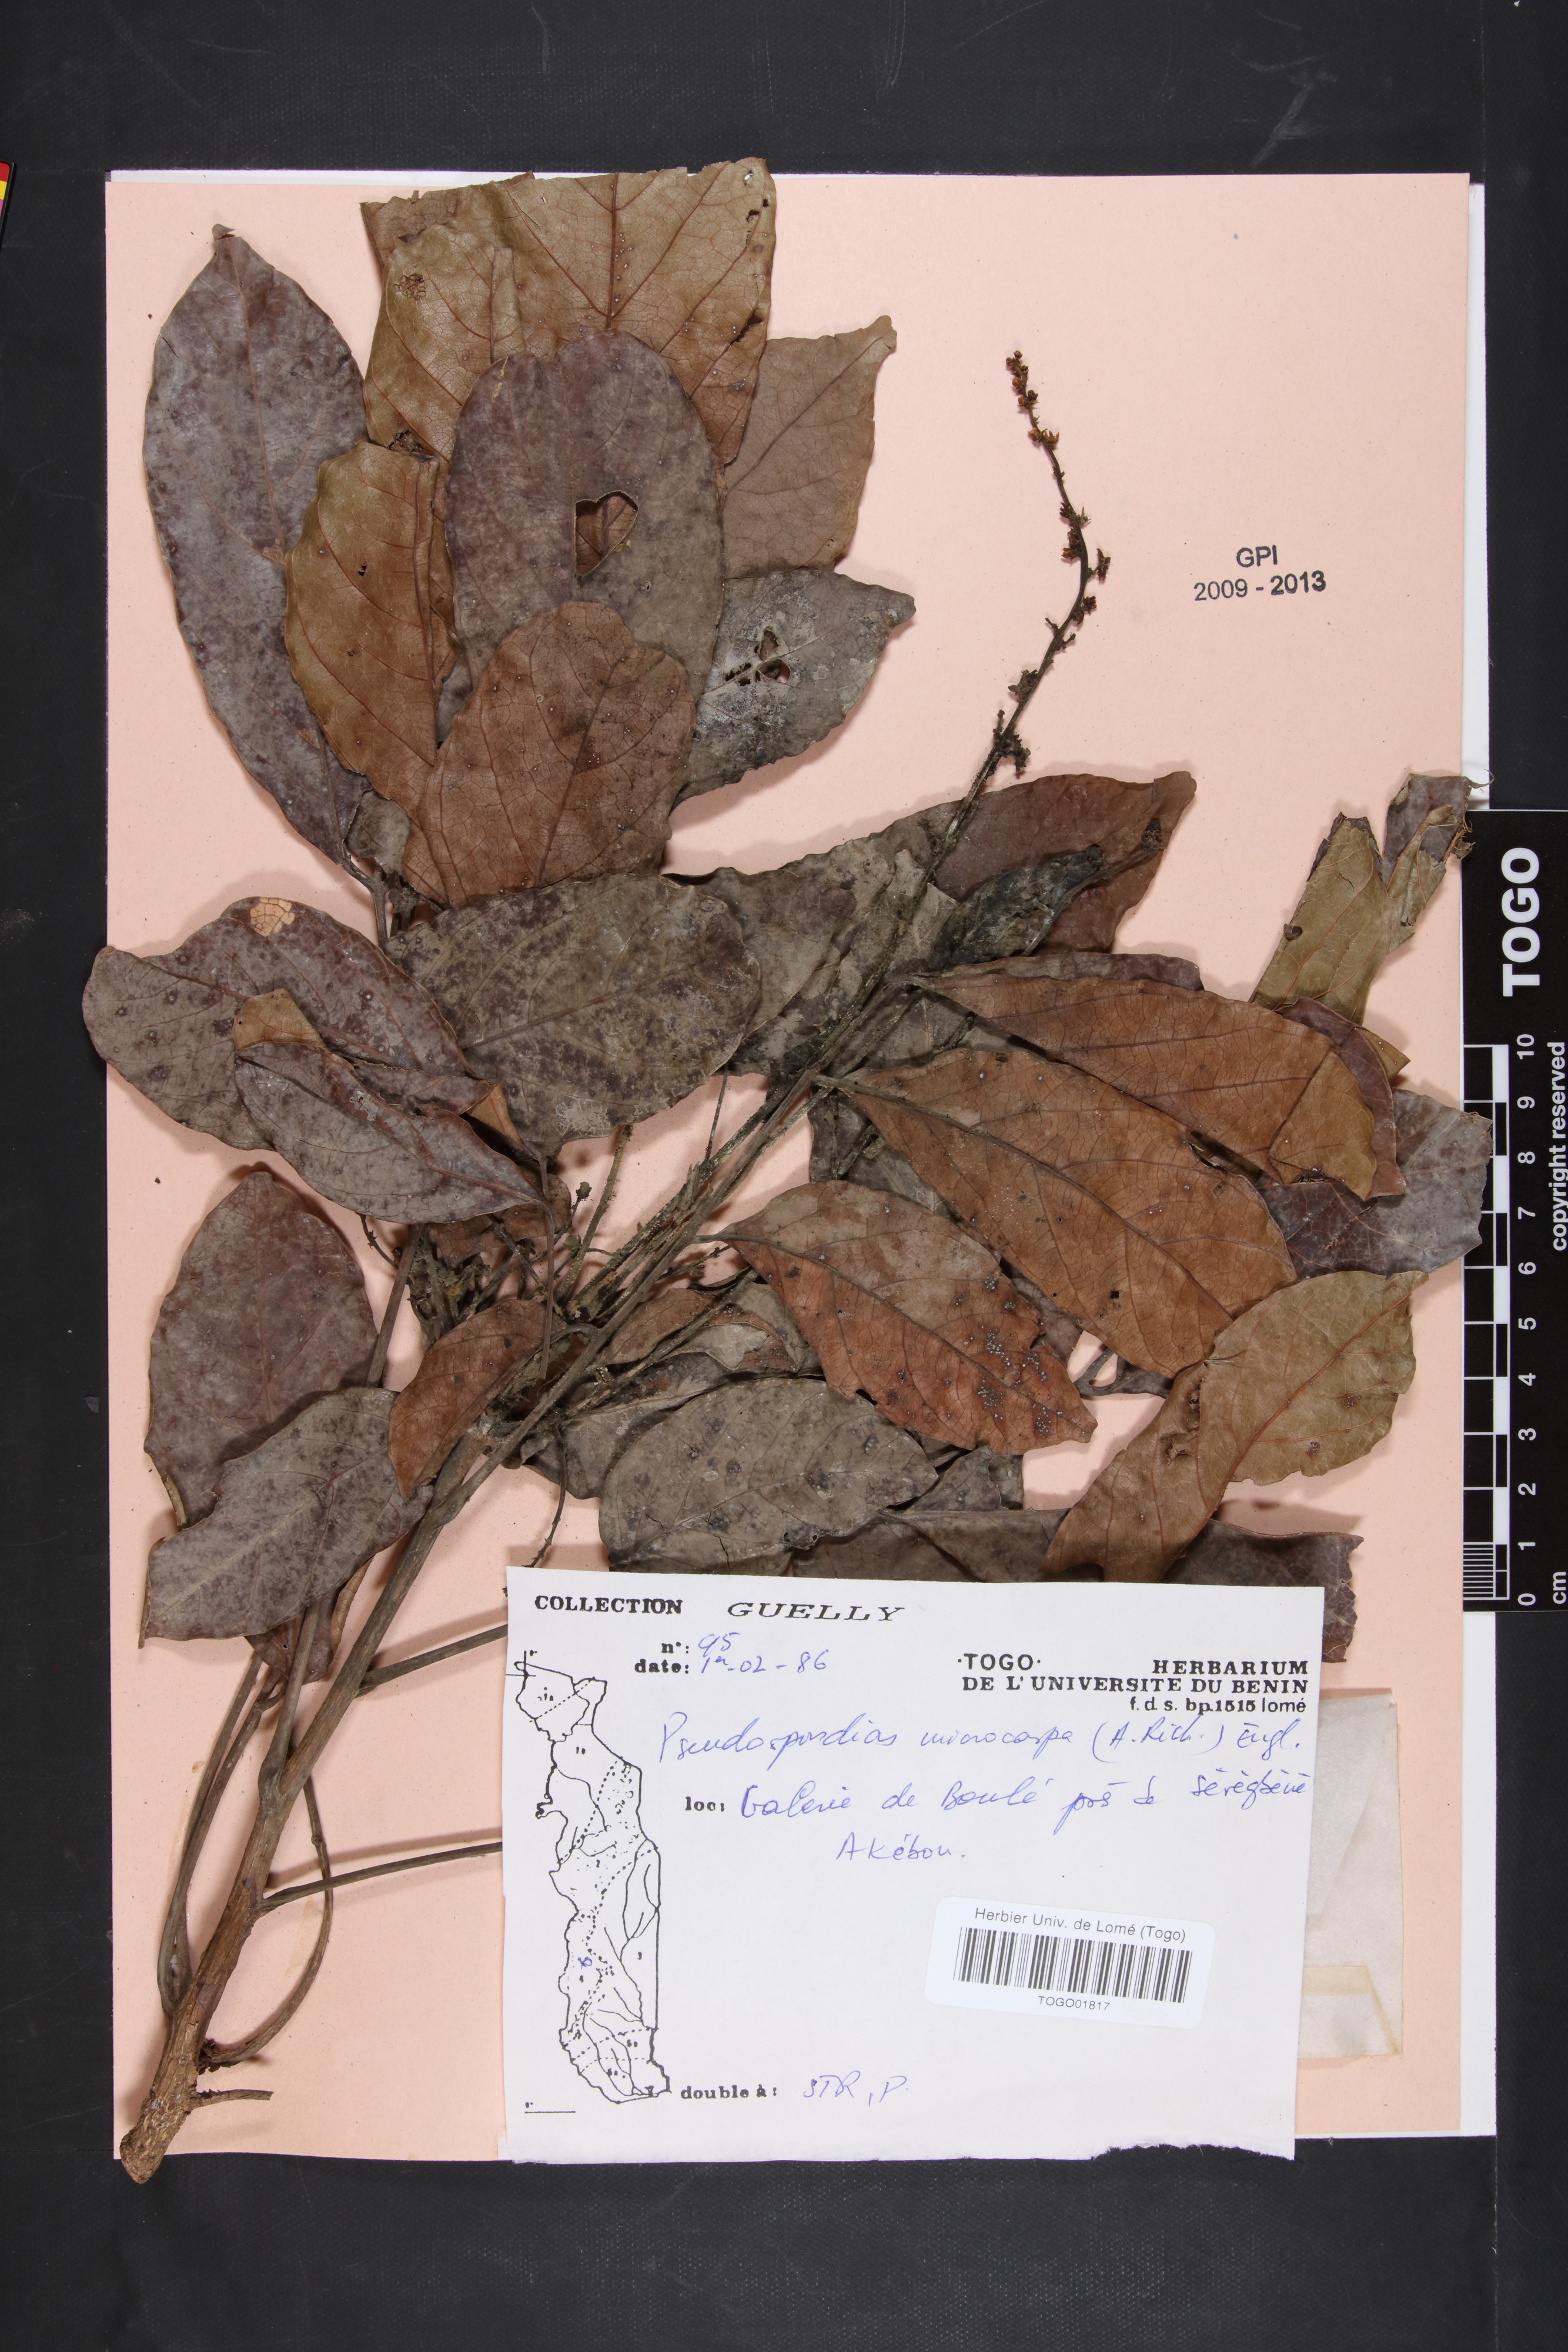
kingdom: Plantae
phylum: Tracheophyta
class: Magnoliopsida
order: Sapindales
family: Anacardiaceae
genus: Pseudospondias
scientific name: Pseudospondias microcarpa
